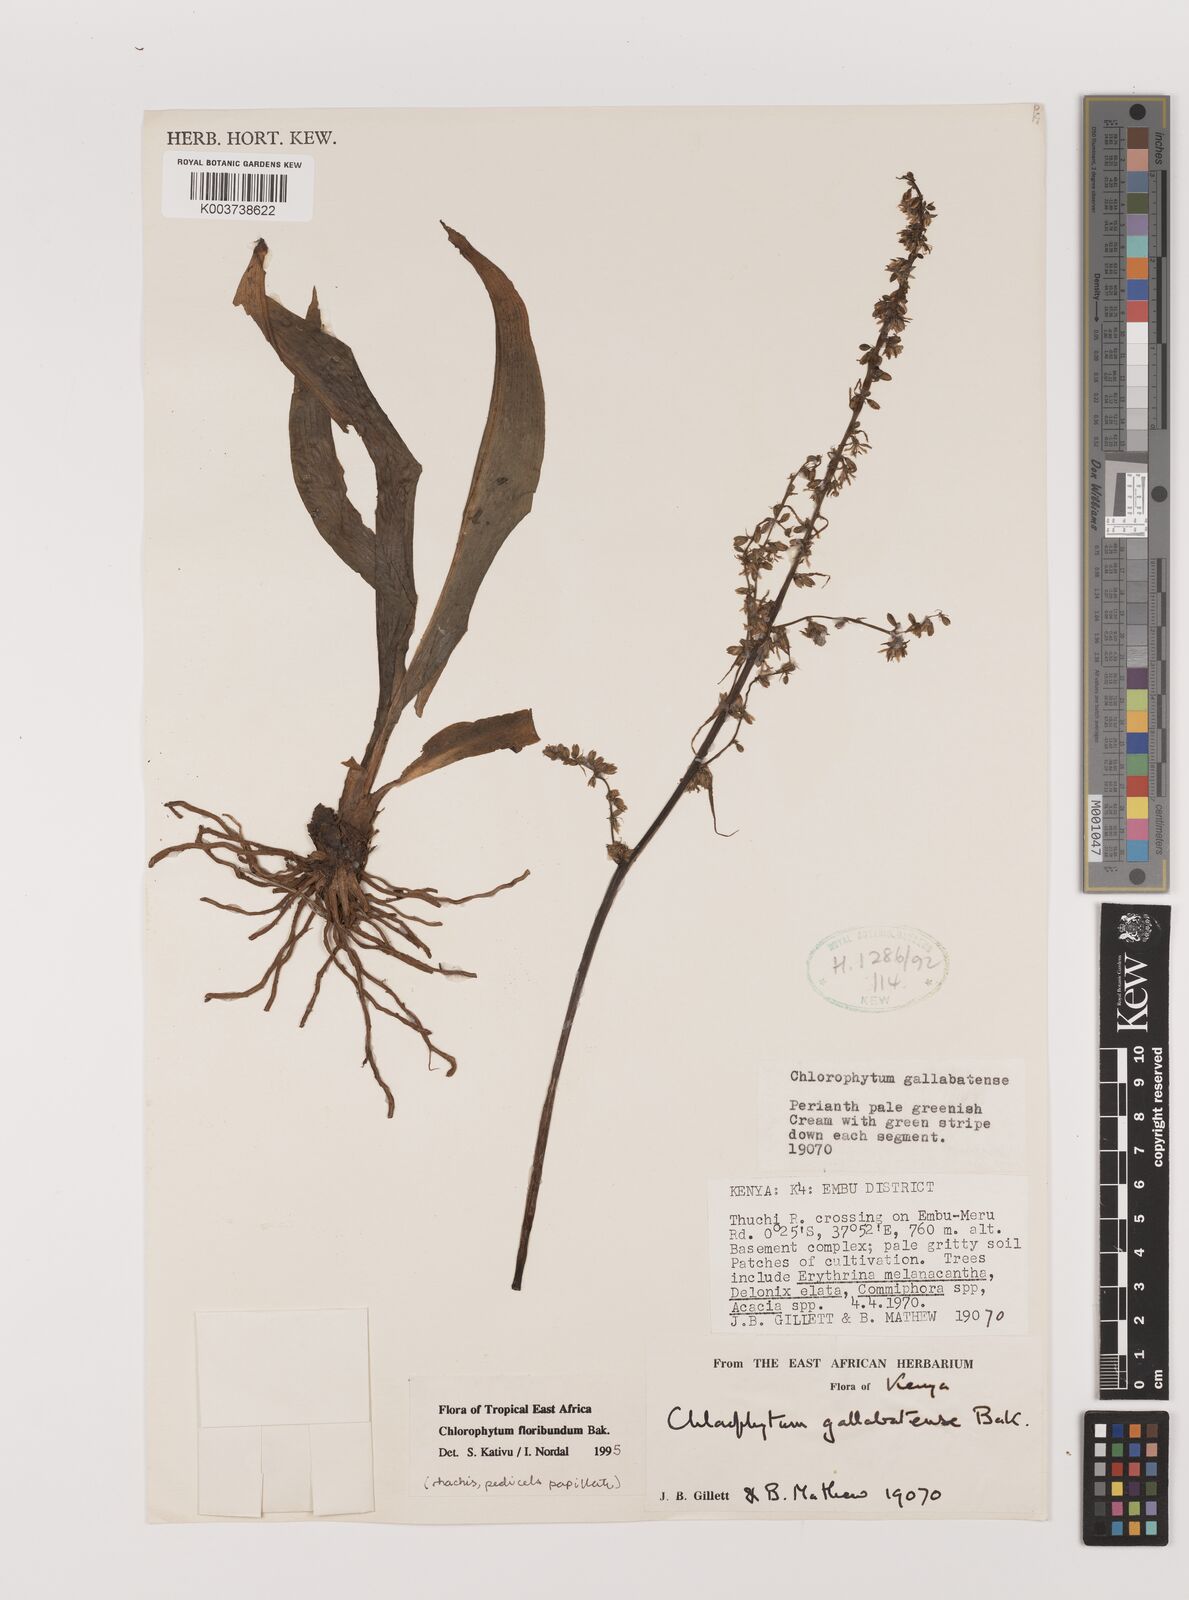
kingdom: Plantae
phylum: Tracheophyta
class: Liliopsida
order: Asparagales
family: Asparagaceae
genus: Chlorophytum
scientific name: Chlorophytum gallabatense
